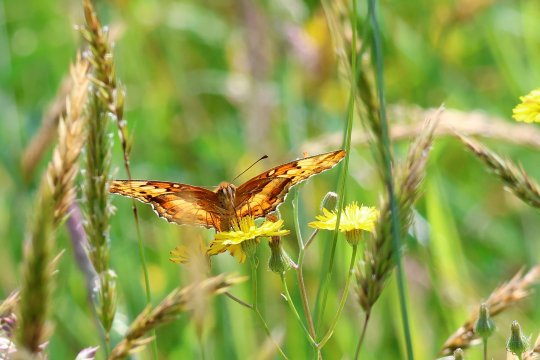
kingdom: Animalia
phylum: Arthropoda
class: Insecta
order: Lepidoptera
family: Nymphalidae
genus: Euptoieta
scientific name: Euptoieta claudia
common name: Variegated Fritillary
